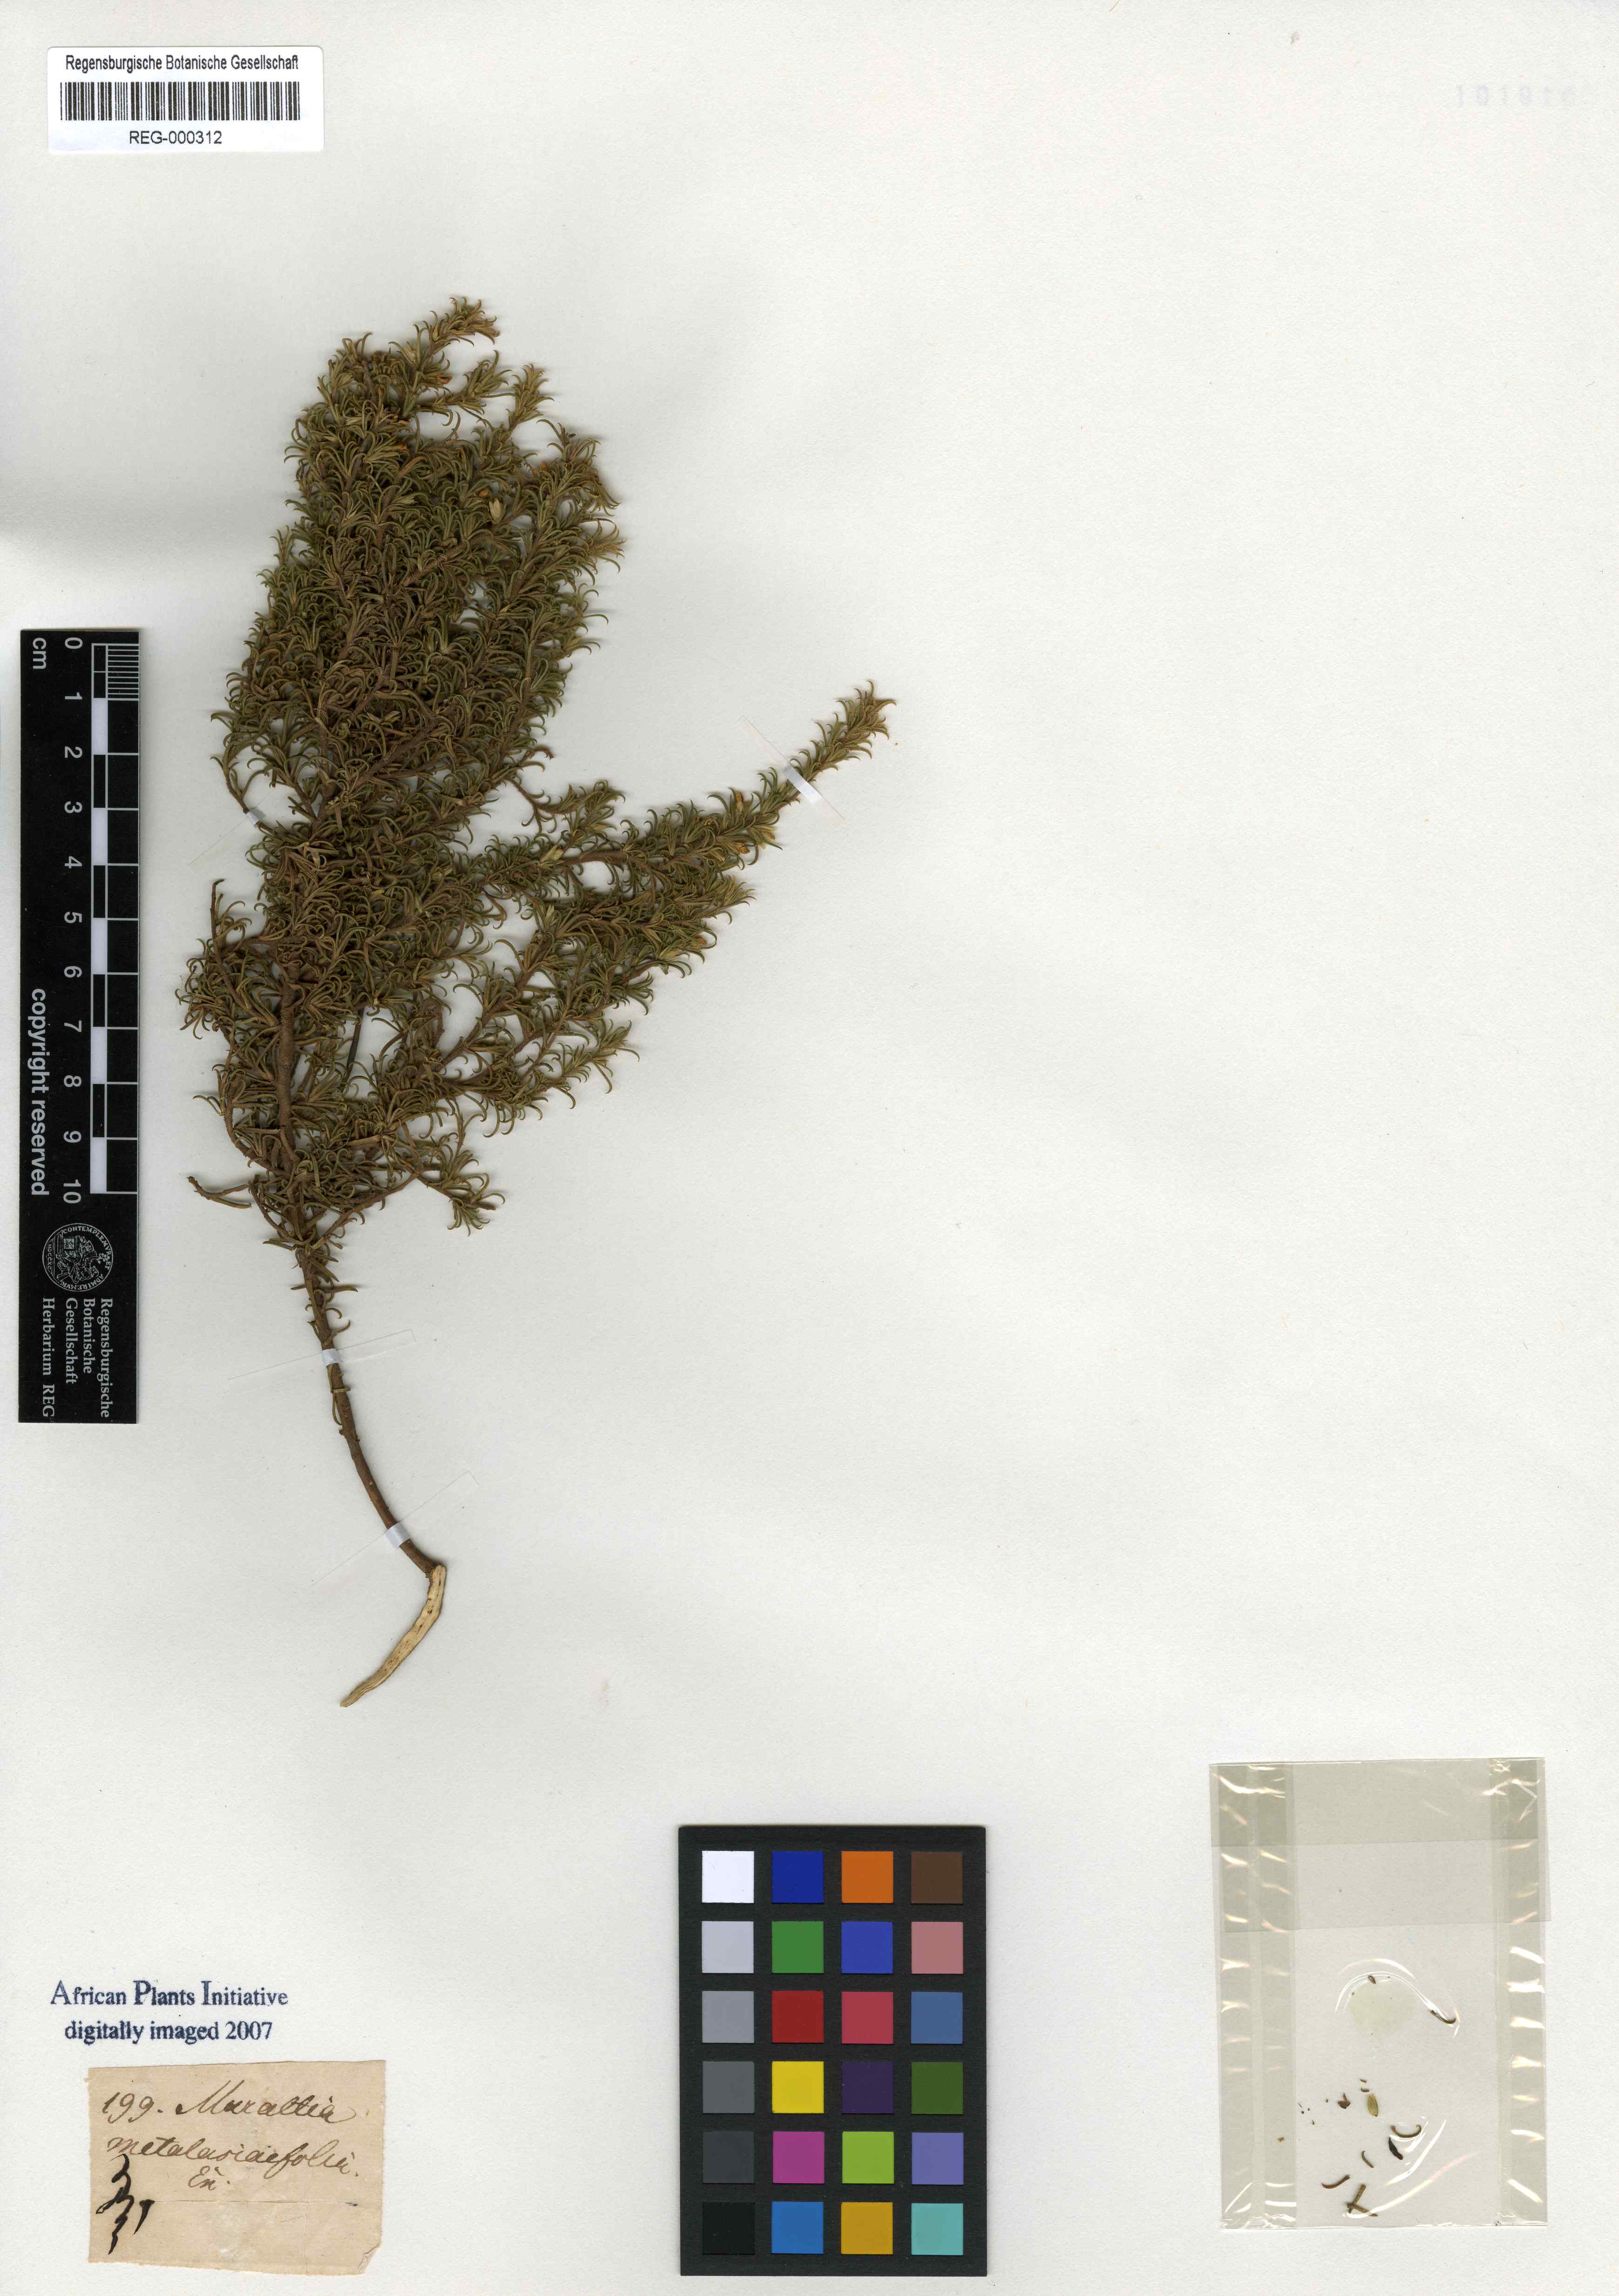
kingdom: Plantae
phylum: Tracheophyta
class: Magnoliopsida
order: Fabales
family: Polygalaceae
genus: Muraltia
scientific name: Muraltia rubeacea
